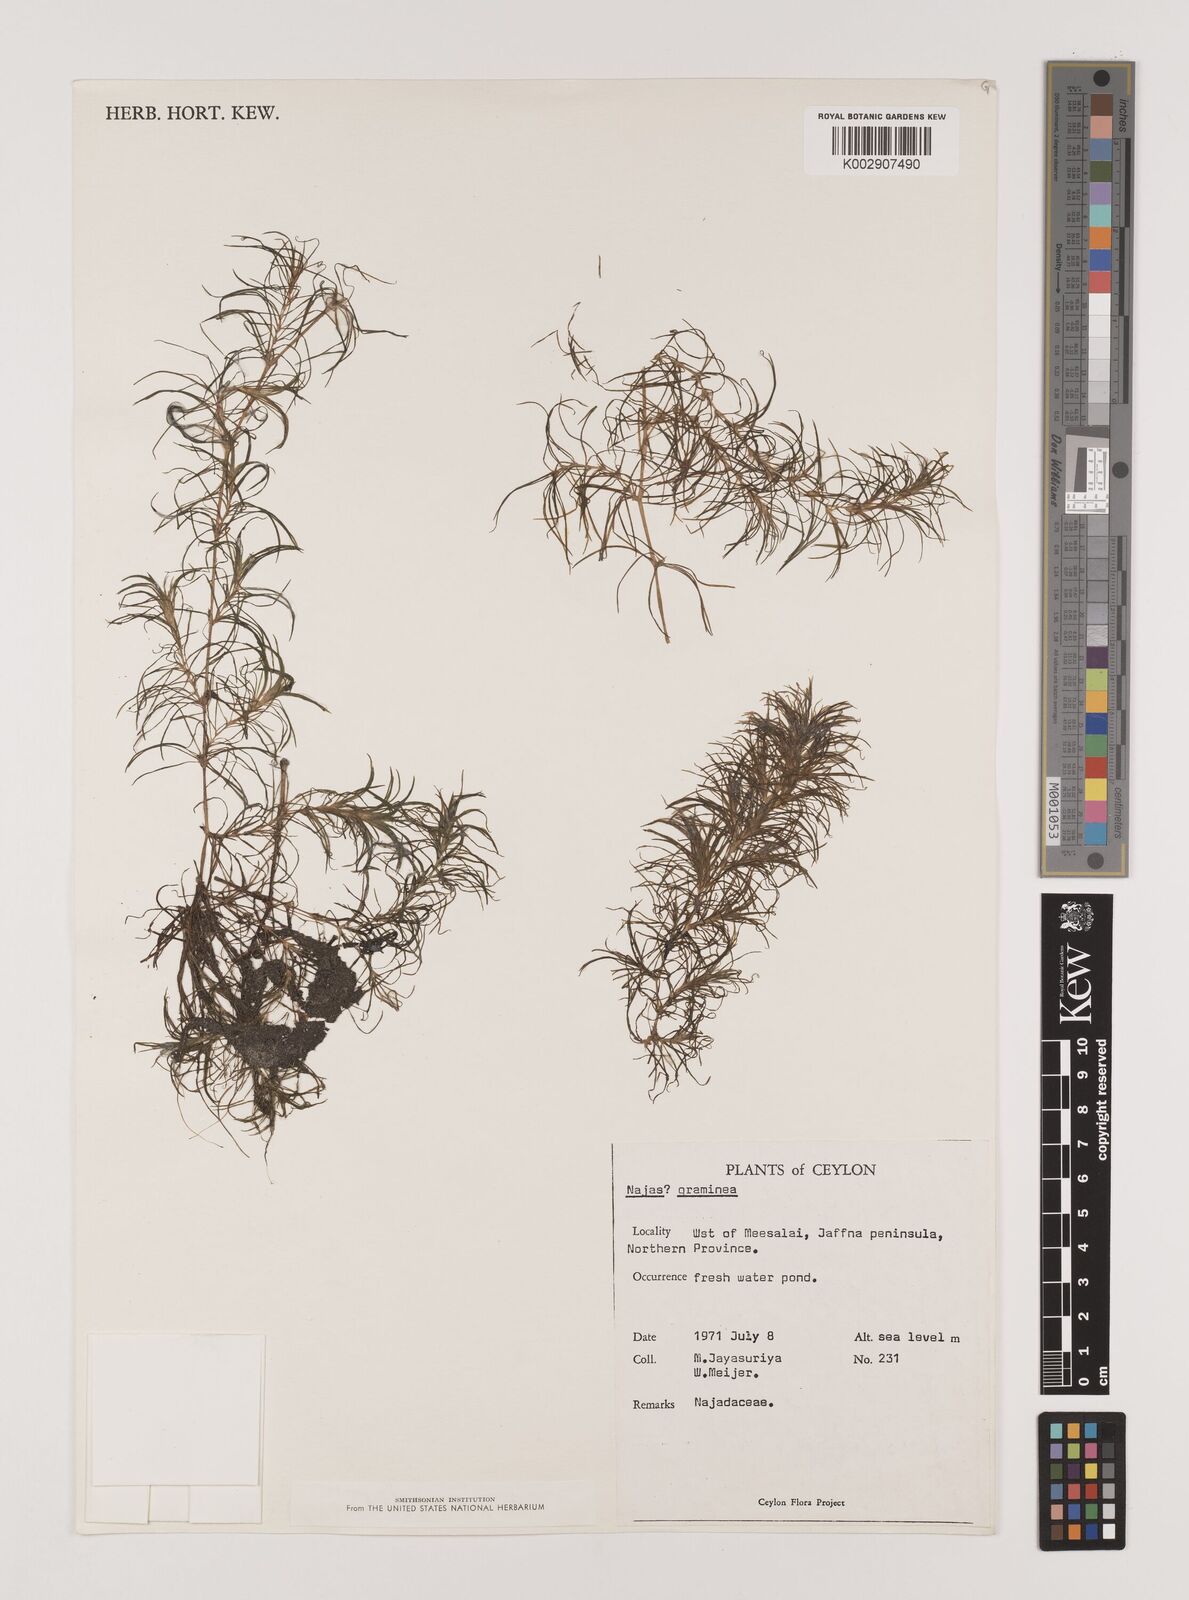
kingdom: Plantae
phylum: Tracheophyta
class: Liliopsida
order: Alismatales
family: Hydrocharitaceae
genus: Najas
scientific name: Najas graminea
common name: Ricefield waternymph
